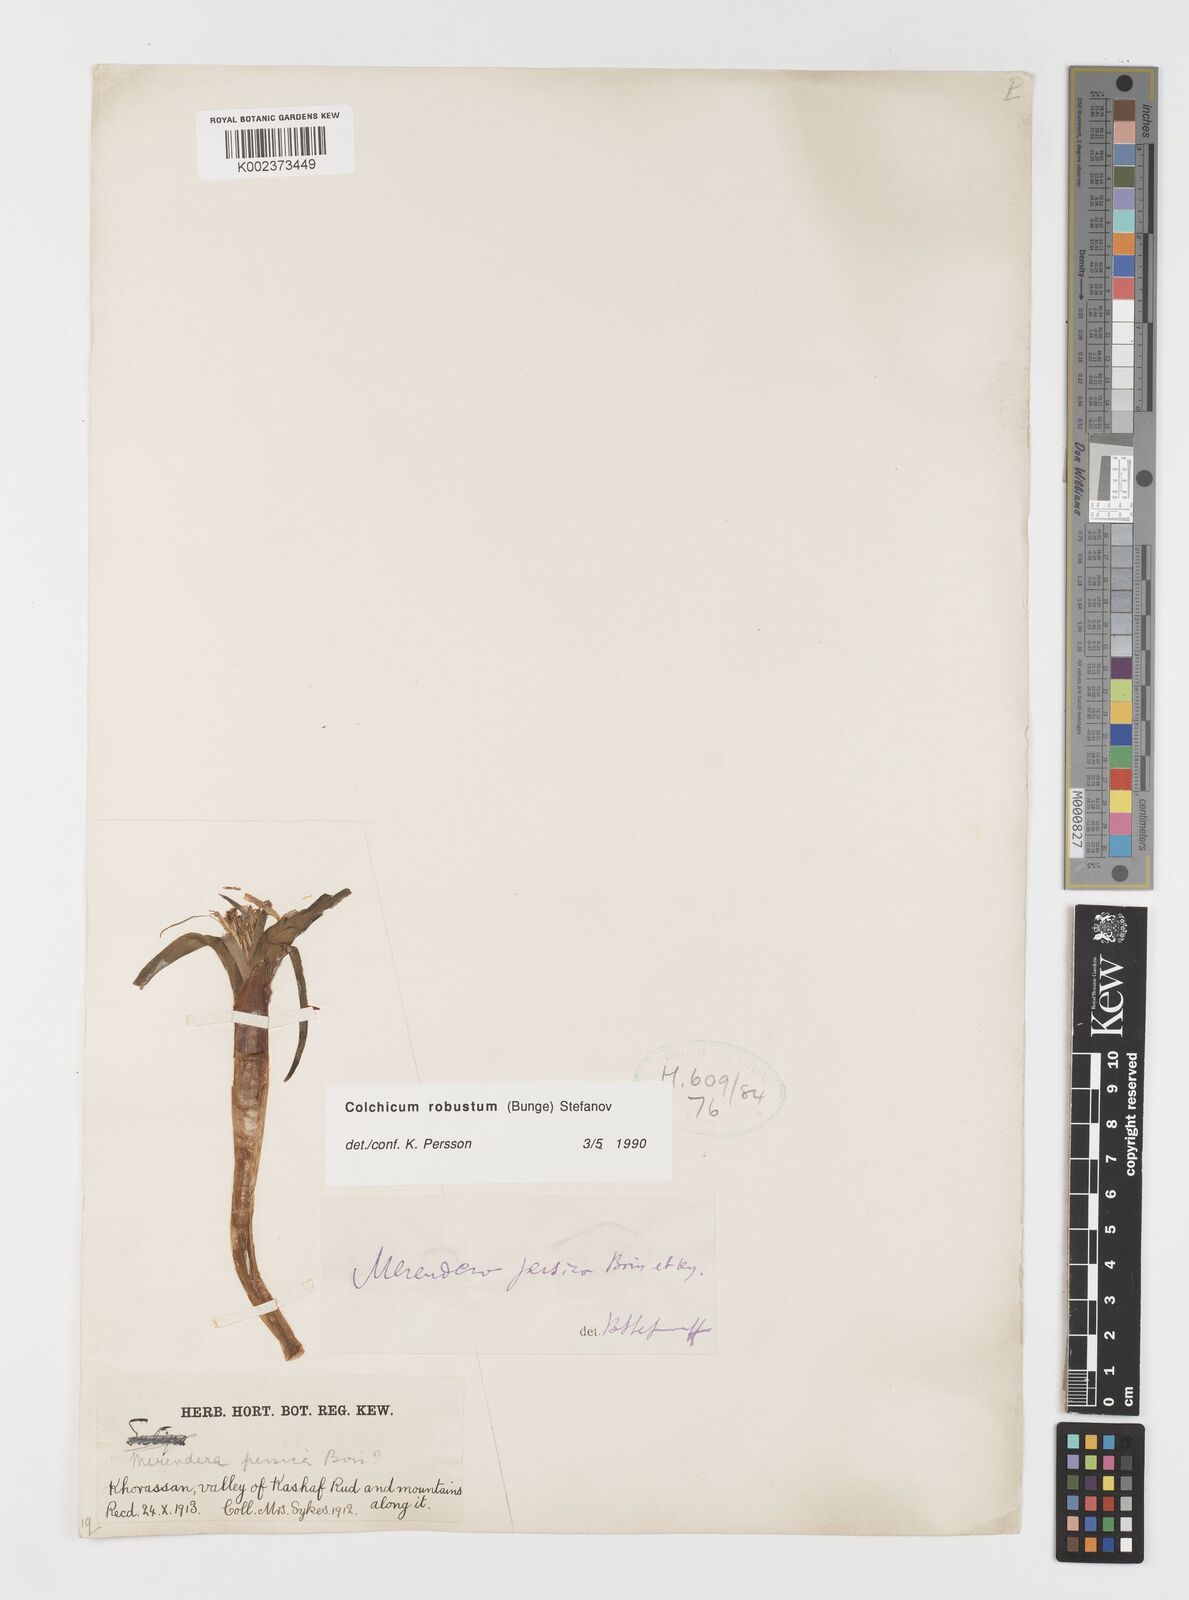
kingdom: Plantae
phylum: Tracheophyta
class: Liliopsida
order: Liliales
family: Colchicaceae
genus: Colchicum
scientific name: Colchicum robustum
